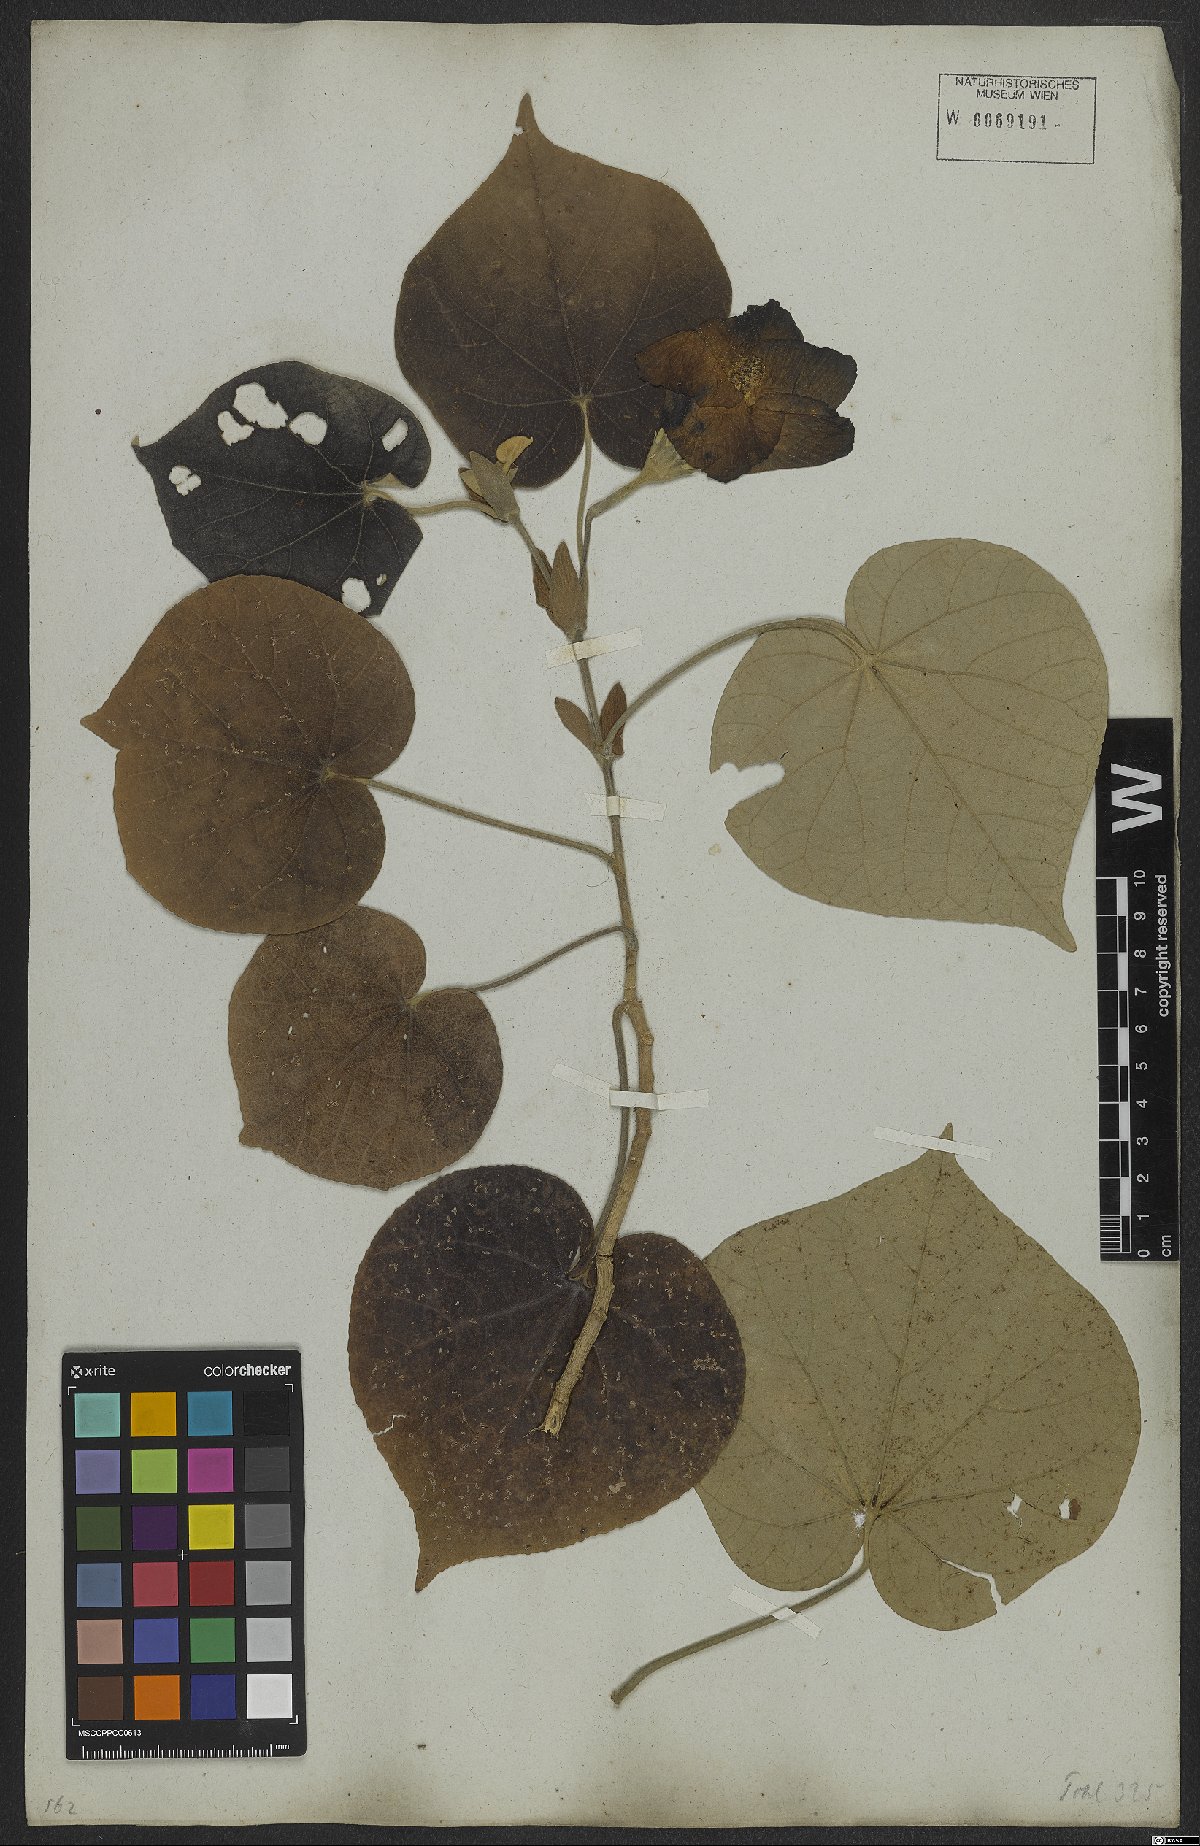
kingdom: Plantae
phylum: Tracheophyta
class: Magnoliopsida
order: Malvales
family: Malvaceae
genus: Talipariti
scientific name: Talipariti tiliaceum
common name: Sea hibiscus
